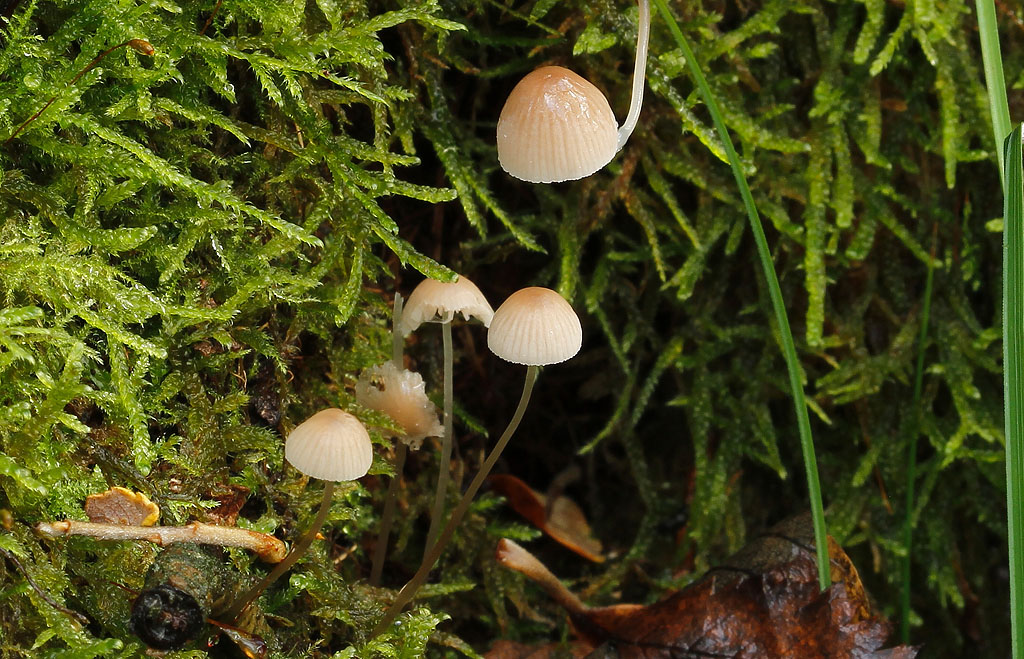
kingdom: Fungi
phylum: Basidiomycota
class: Agaricomycetes
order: Agaricales
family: Mycenaceae
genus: Mycena
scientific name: Mycena metata
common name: rødlig huesvamp
